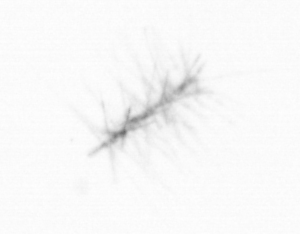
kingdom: Chromista
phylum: Ochrophyta
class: Bacillariophyceae
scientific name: Bacillariophyceae
